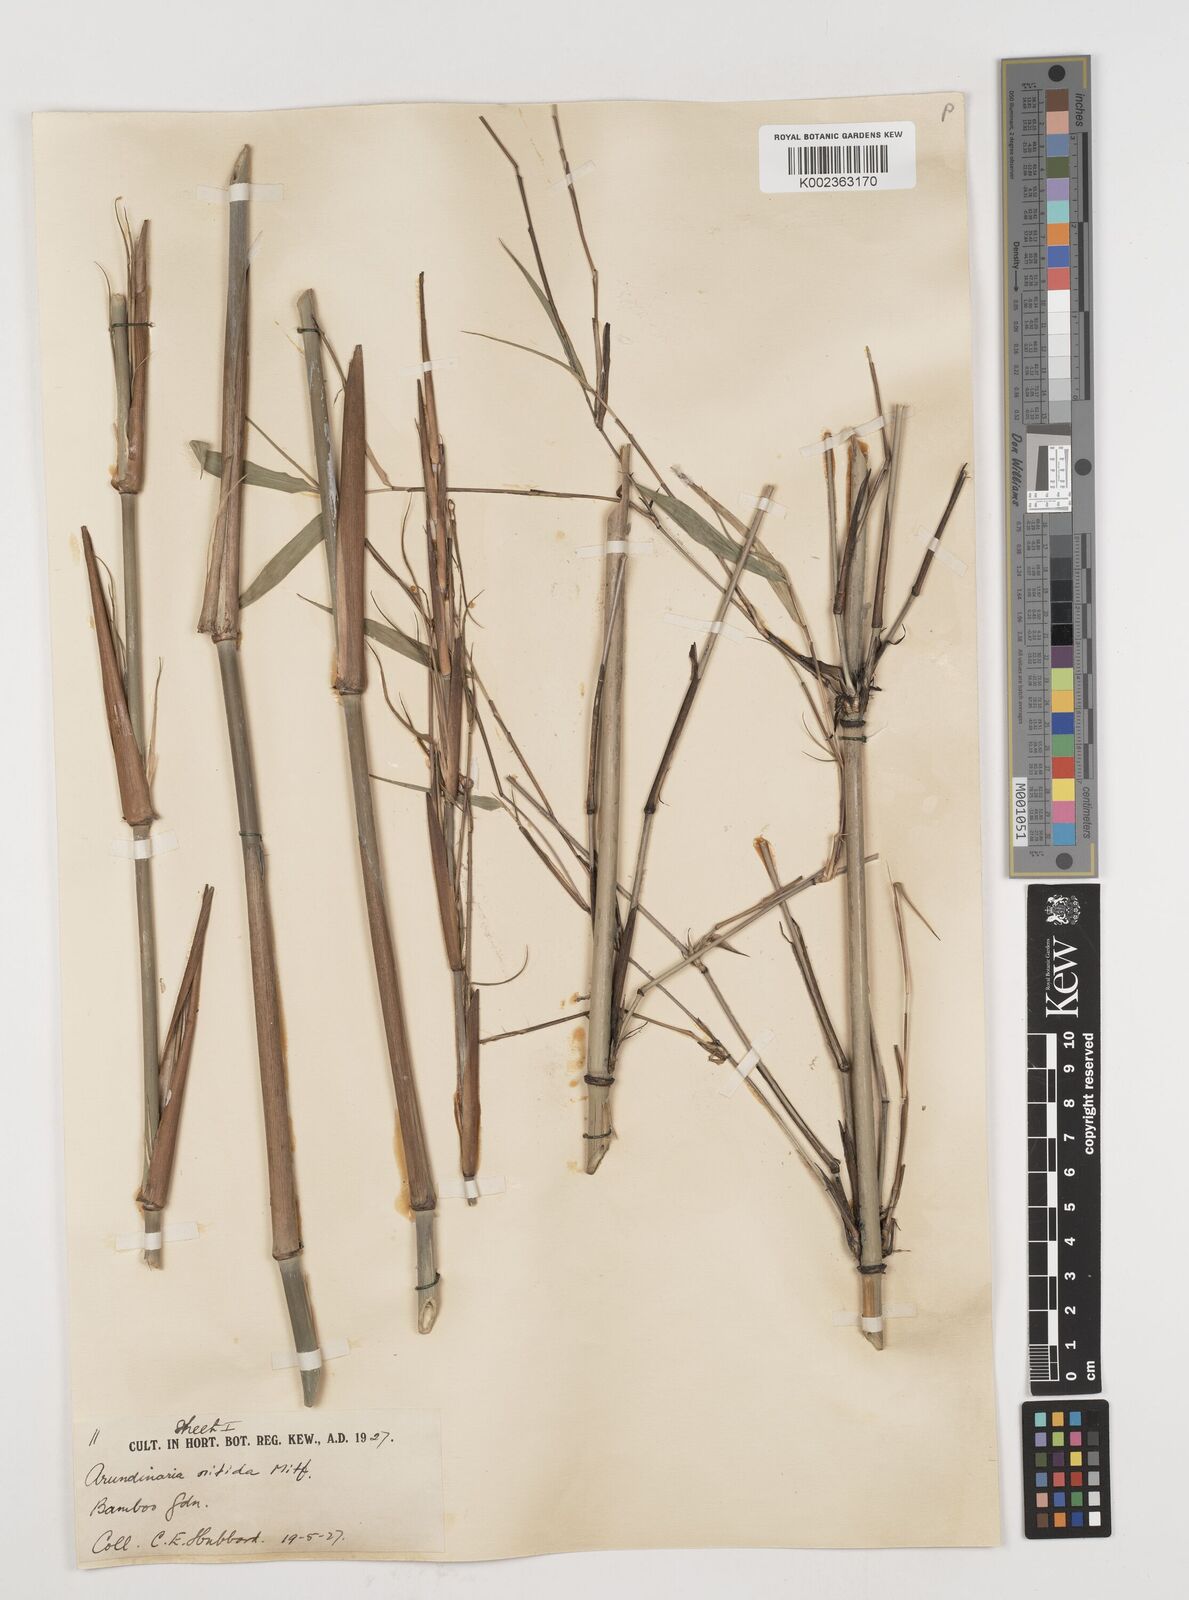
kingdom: Plantae
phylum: Tracheophyta
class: Liliopsida
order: Poales
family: Poaceae
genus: Fargesia
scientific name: Fargesia nitida ex
